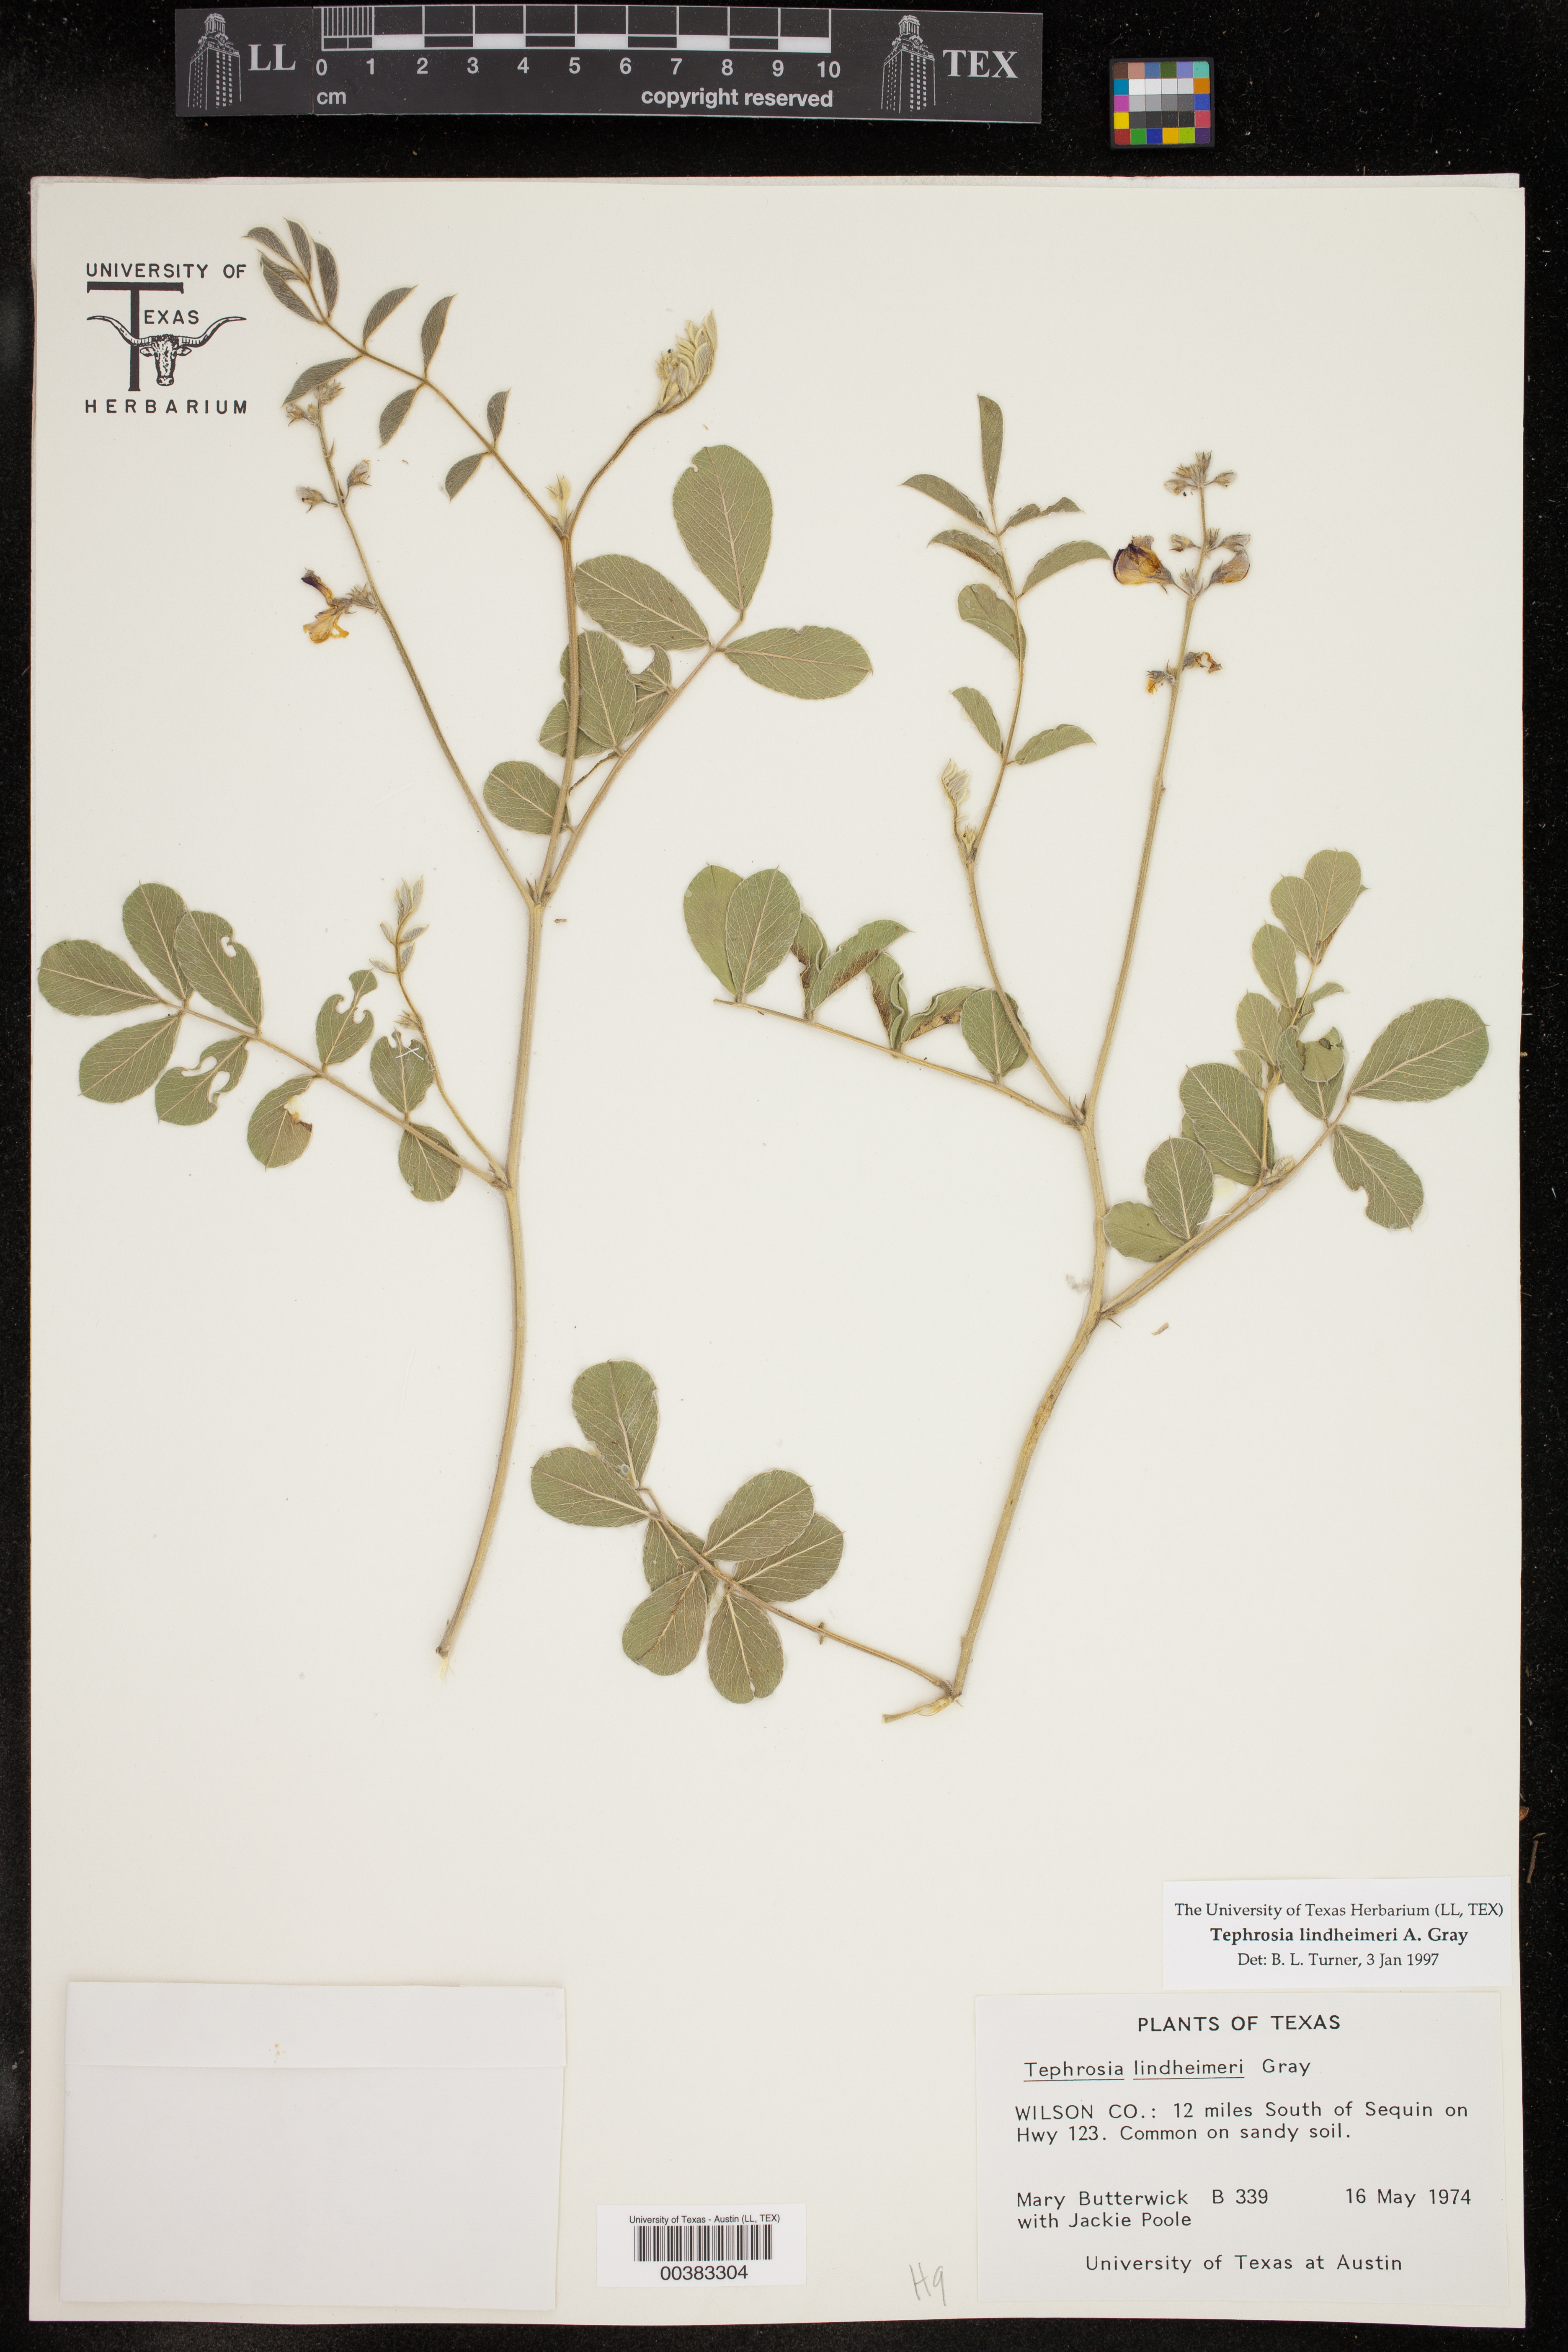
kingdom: Plantae
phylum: Tracheophyta
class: Magnoliopsida
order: Fabales
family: Fabaceae
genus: Tephrosia
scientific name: Tephrosia lindheimeri
